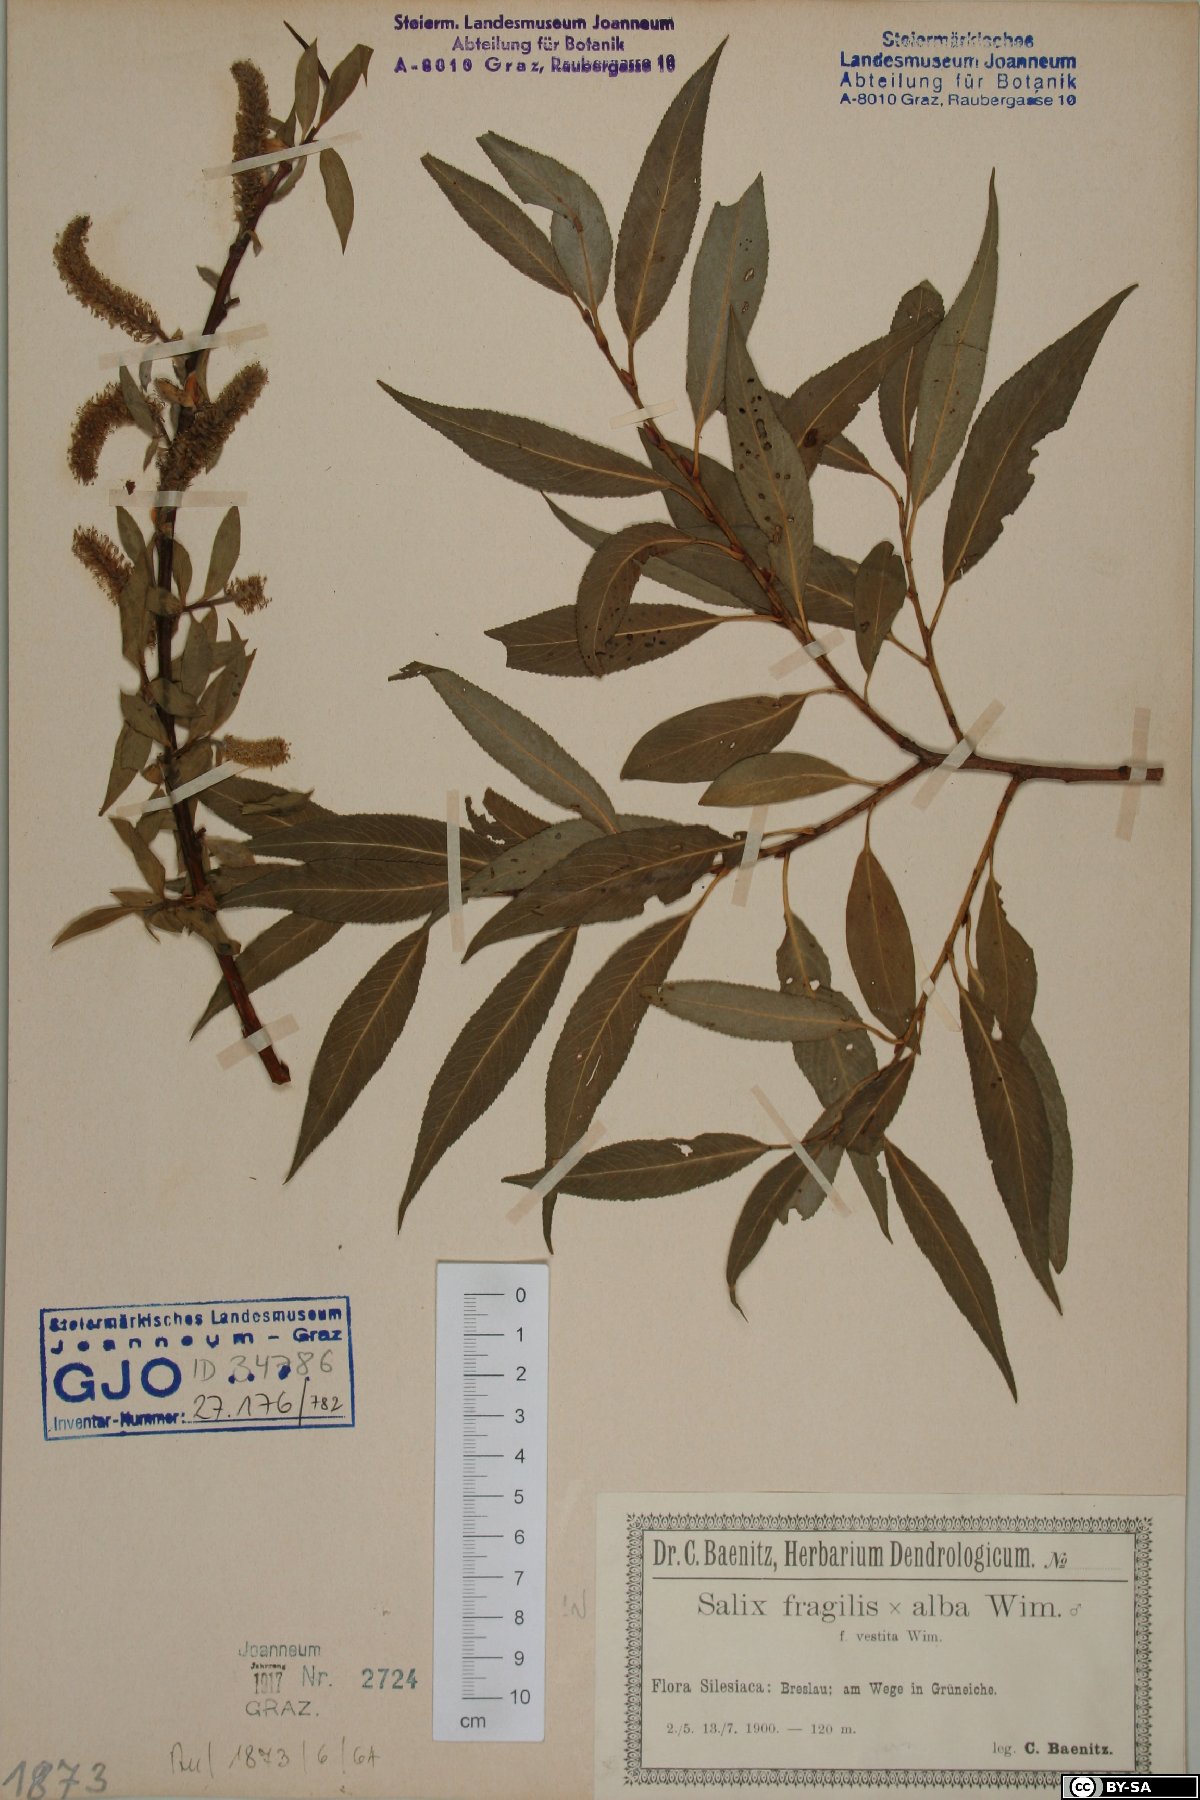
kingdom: Plantae
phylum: Tracheophyta
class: Magnoliopsida
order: Malpighiales
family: Salicaceae
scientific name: Salicaceae
